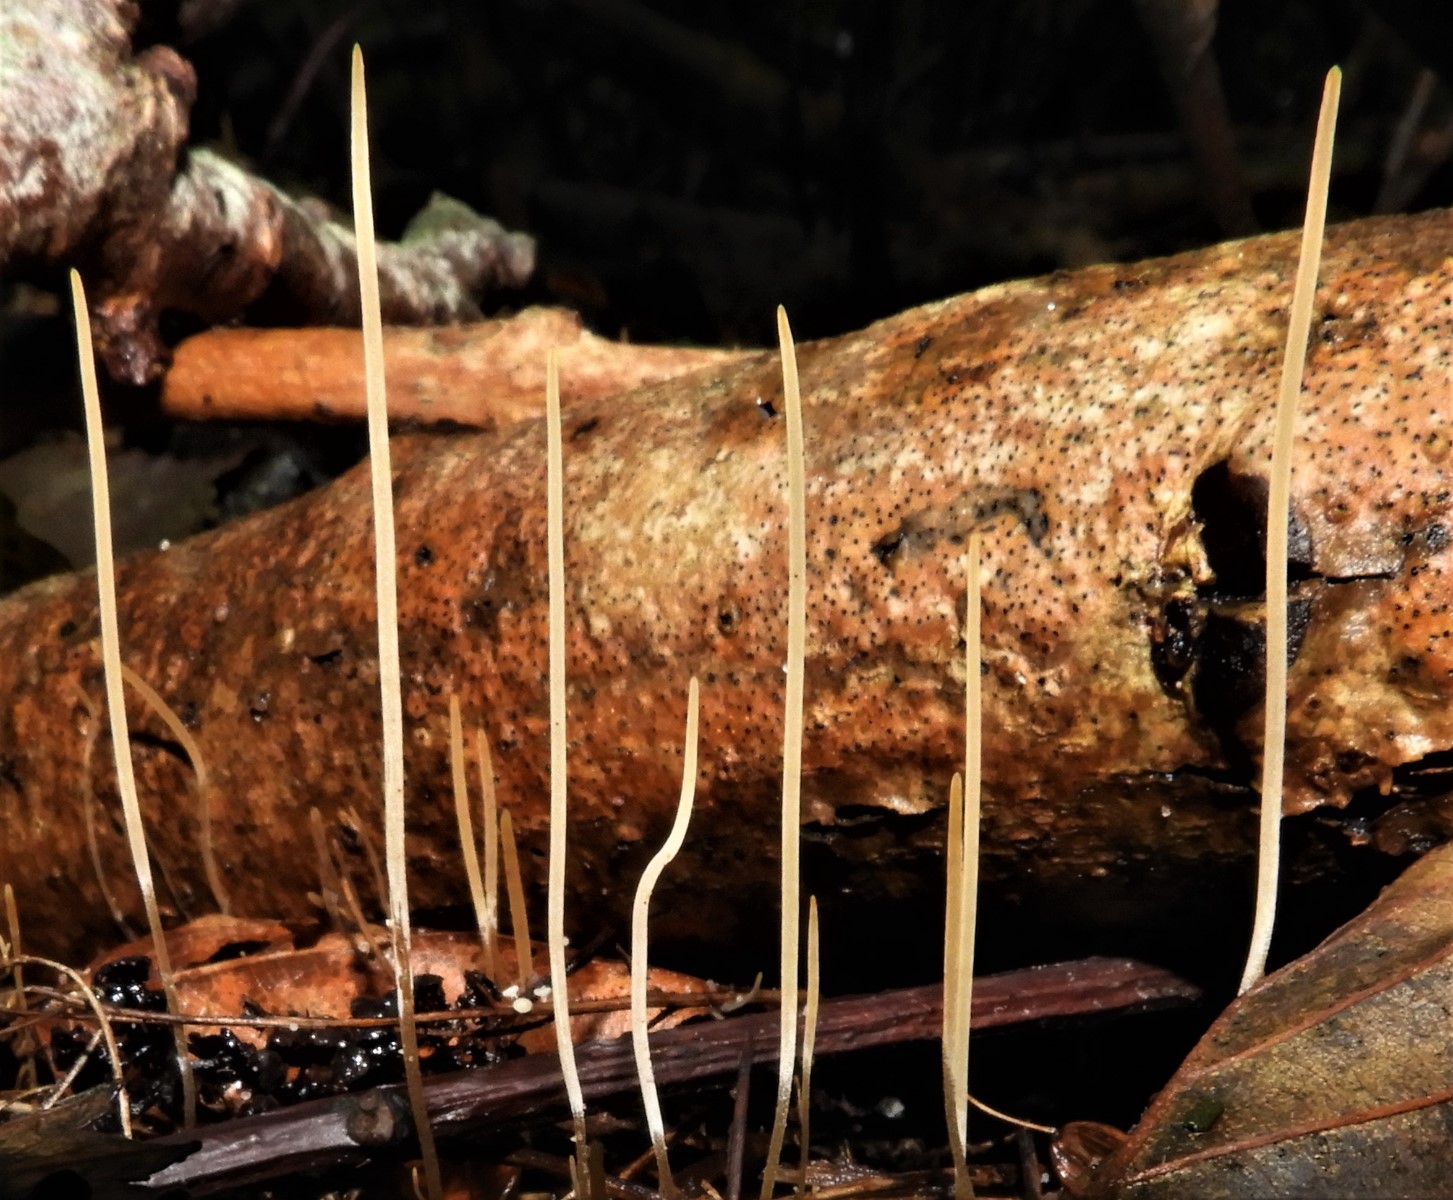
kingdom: Fungi
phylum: Basidiomycota
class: Agaricomycetes
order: Agaricales
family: Typhulaceae
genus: Typhula
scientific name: Typhula juncea
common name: trådagtig rørkølle
